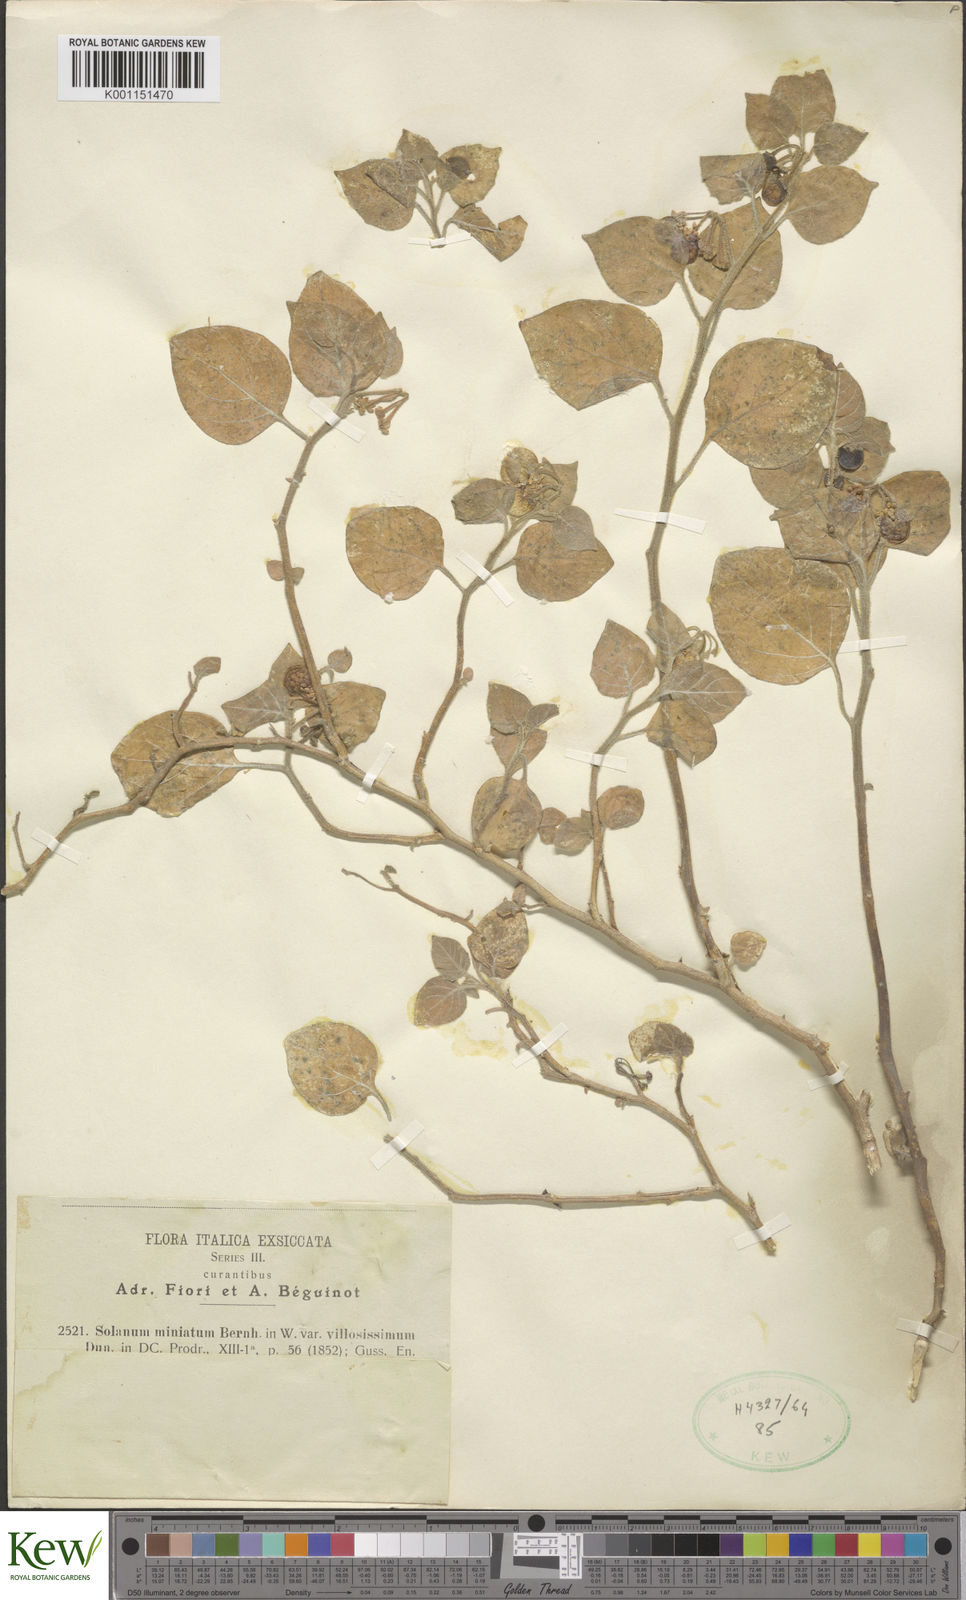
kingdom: Plantae
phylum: Tracheophyta
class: Magnoliopsida
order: Solanales
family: Solanaceae
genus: Solanum
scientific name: Solanum hoehnei
